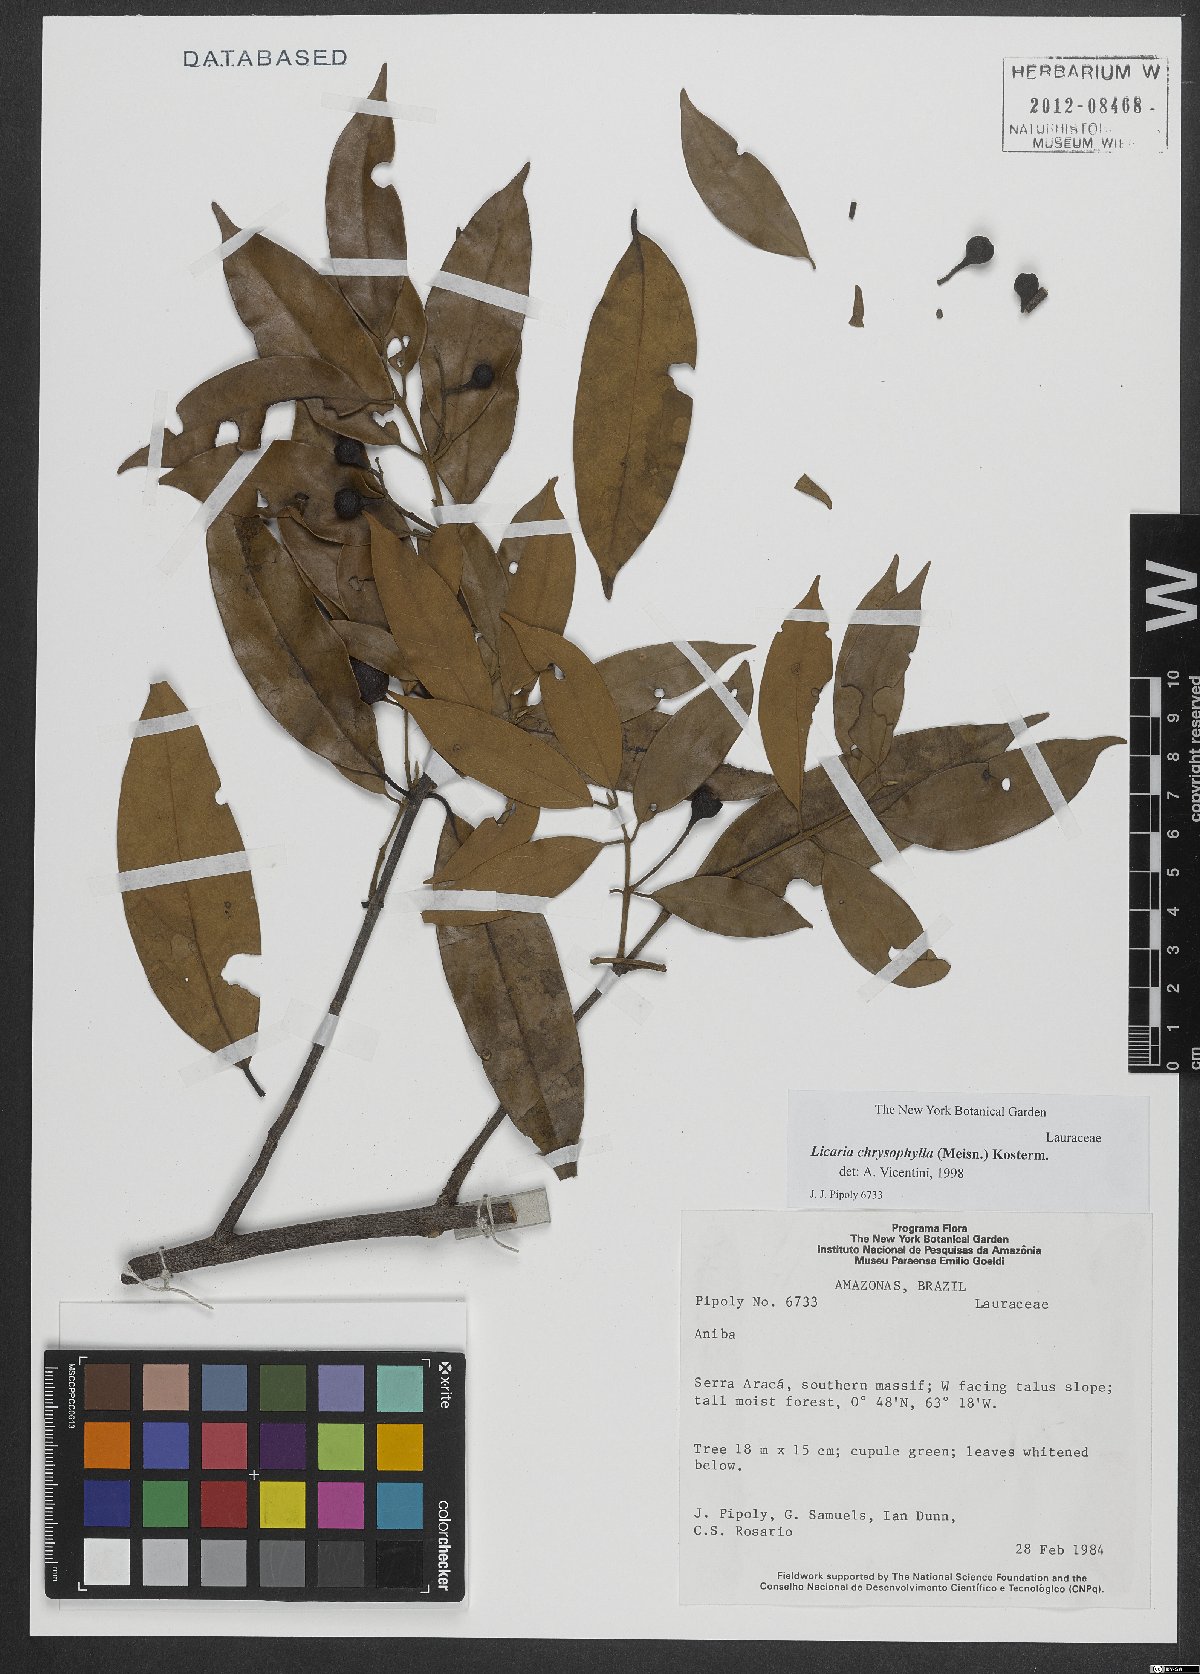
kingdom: Plantae
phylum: Tracheophyta
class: Magnoliopsida
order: Laurales
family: Lauraceae
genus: Licaria
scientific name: Licaria chrysophylla
